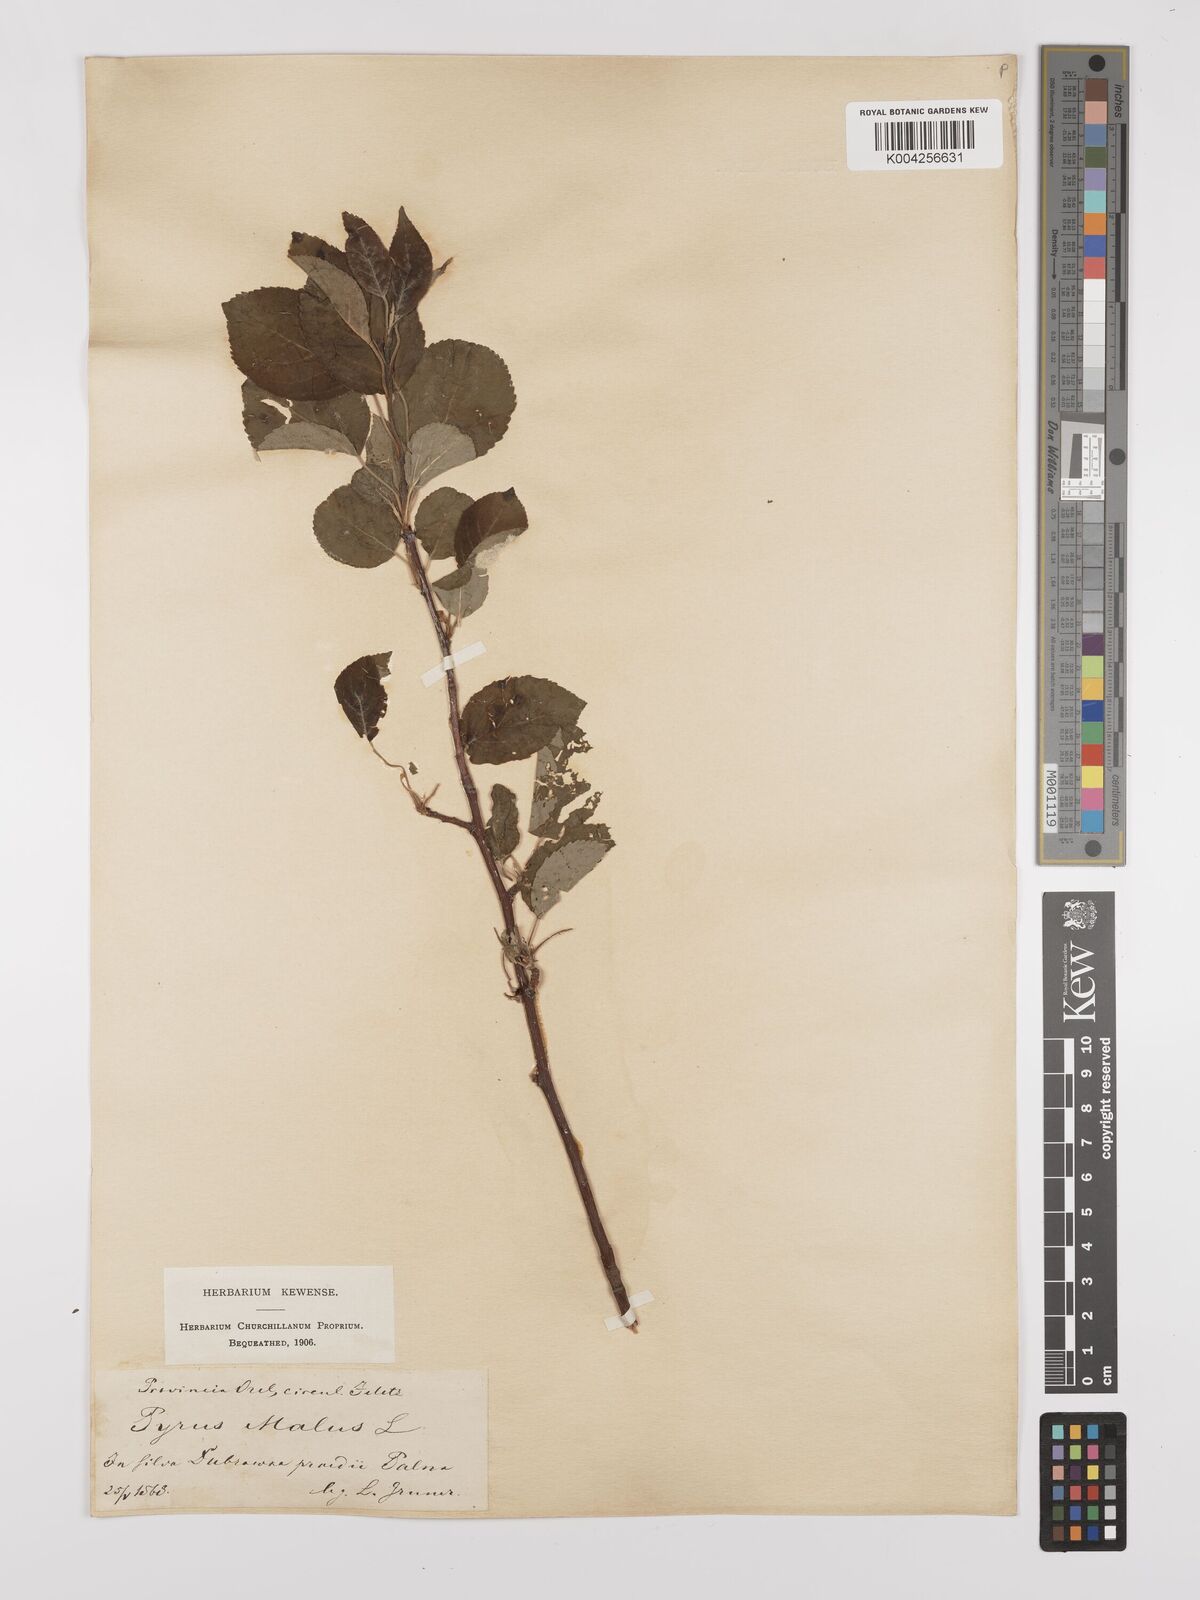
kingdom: Plantae
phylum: Tracheophyta
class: Magnoliopsida
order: Rosales
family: Rosaceae
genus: Malus
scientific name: Malus domestica
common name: Apple
